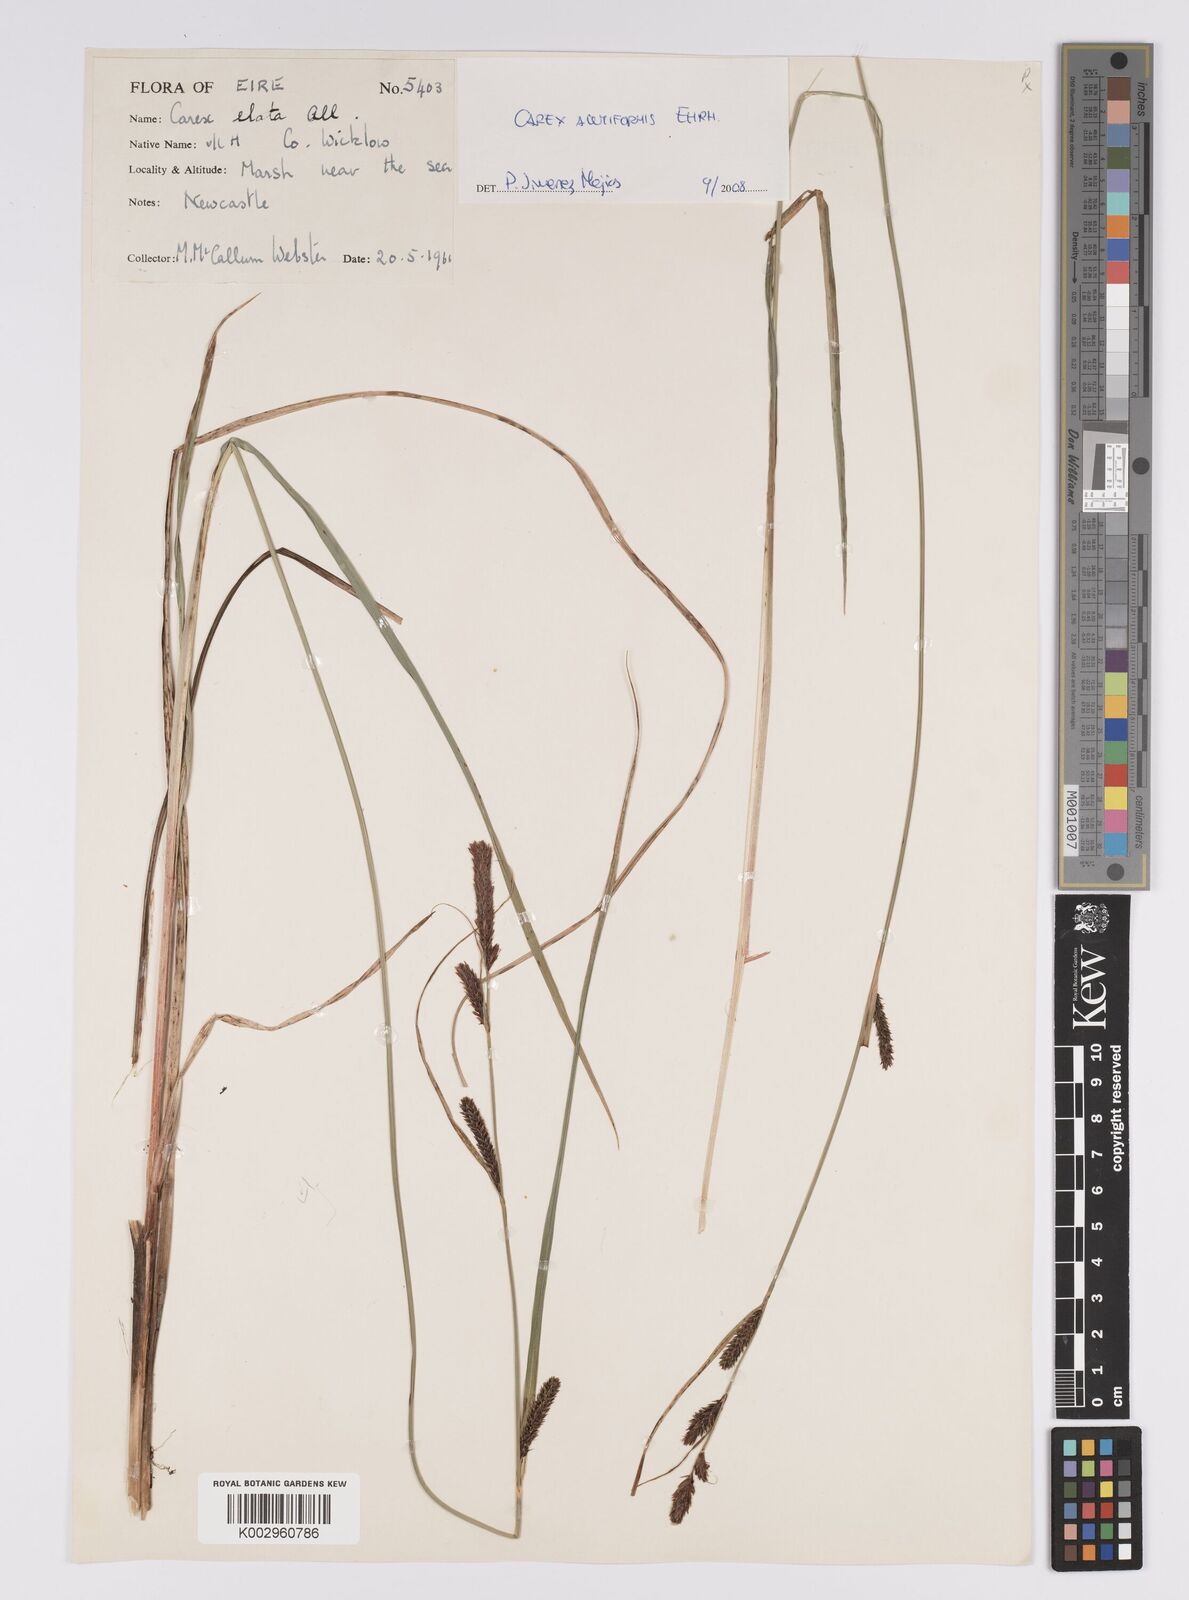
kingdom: Plantae
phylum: Tracheophyta
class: Liliopsida
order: Poales
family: Cyperaceae
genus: Carex
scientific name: Carex acutiformis
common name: Lesser pond-sedge
